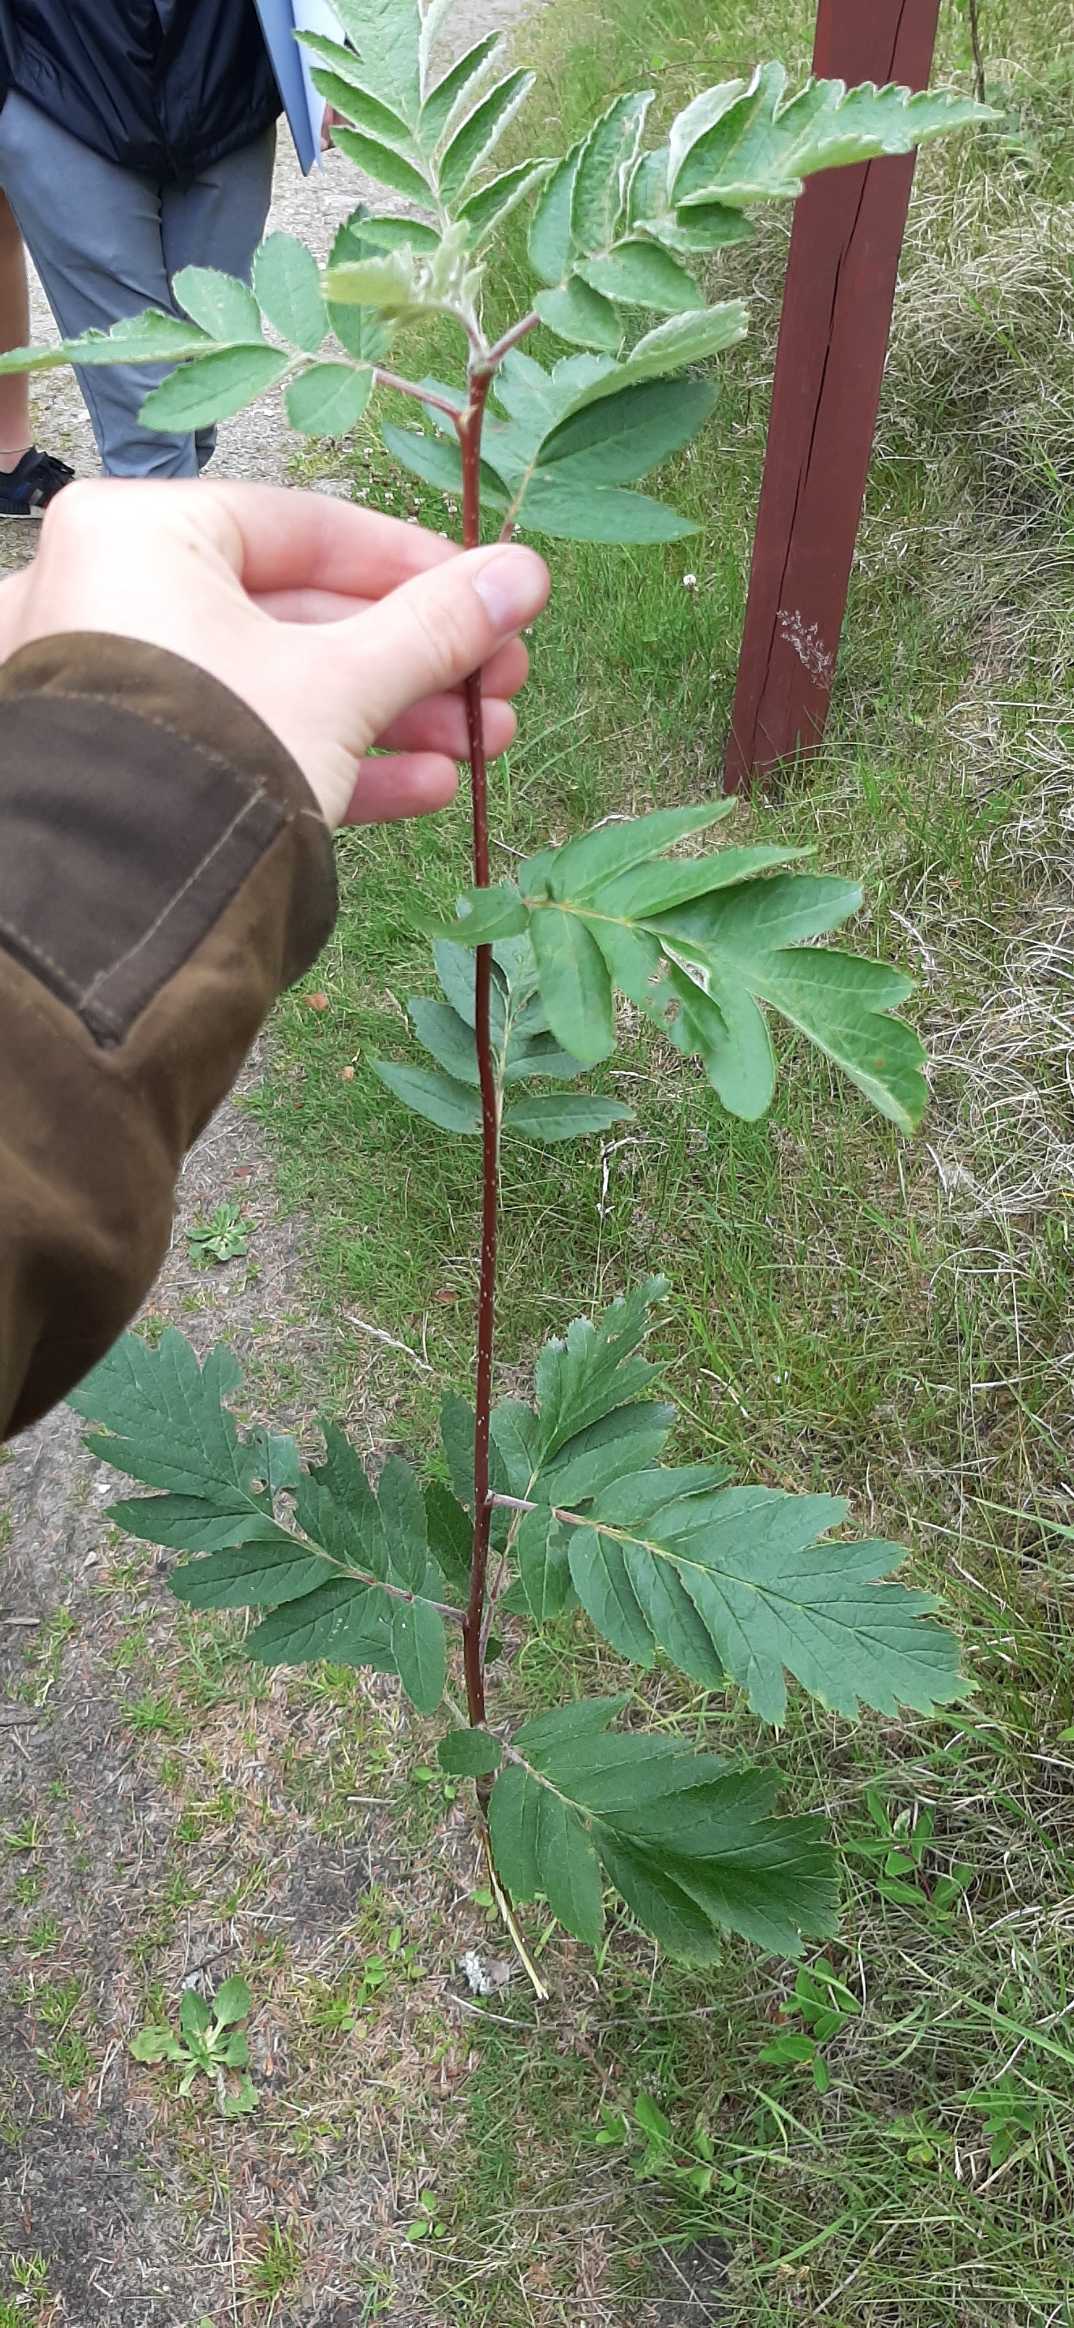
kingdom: Plantae
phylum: Tracheophyta
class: Magnoliopsida
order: Rosales
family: Rosaceae
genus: Hedlundia
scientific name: Hedlundia hybrida
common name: Finsk røn
